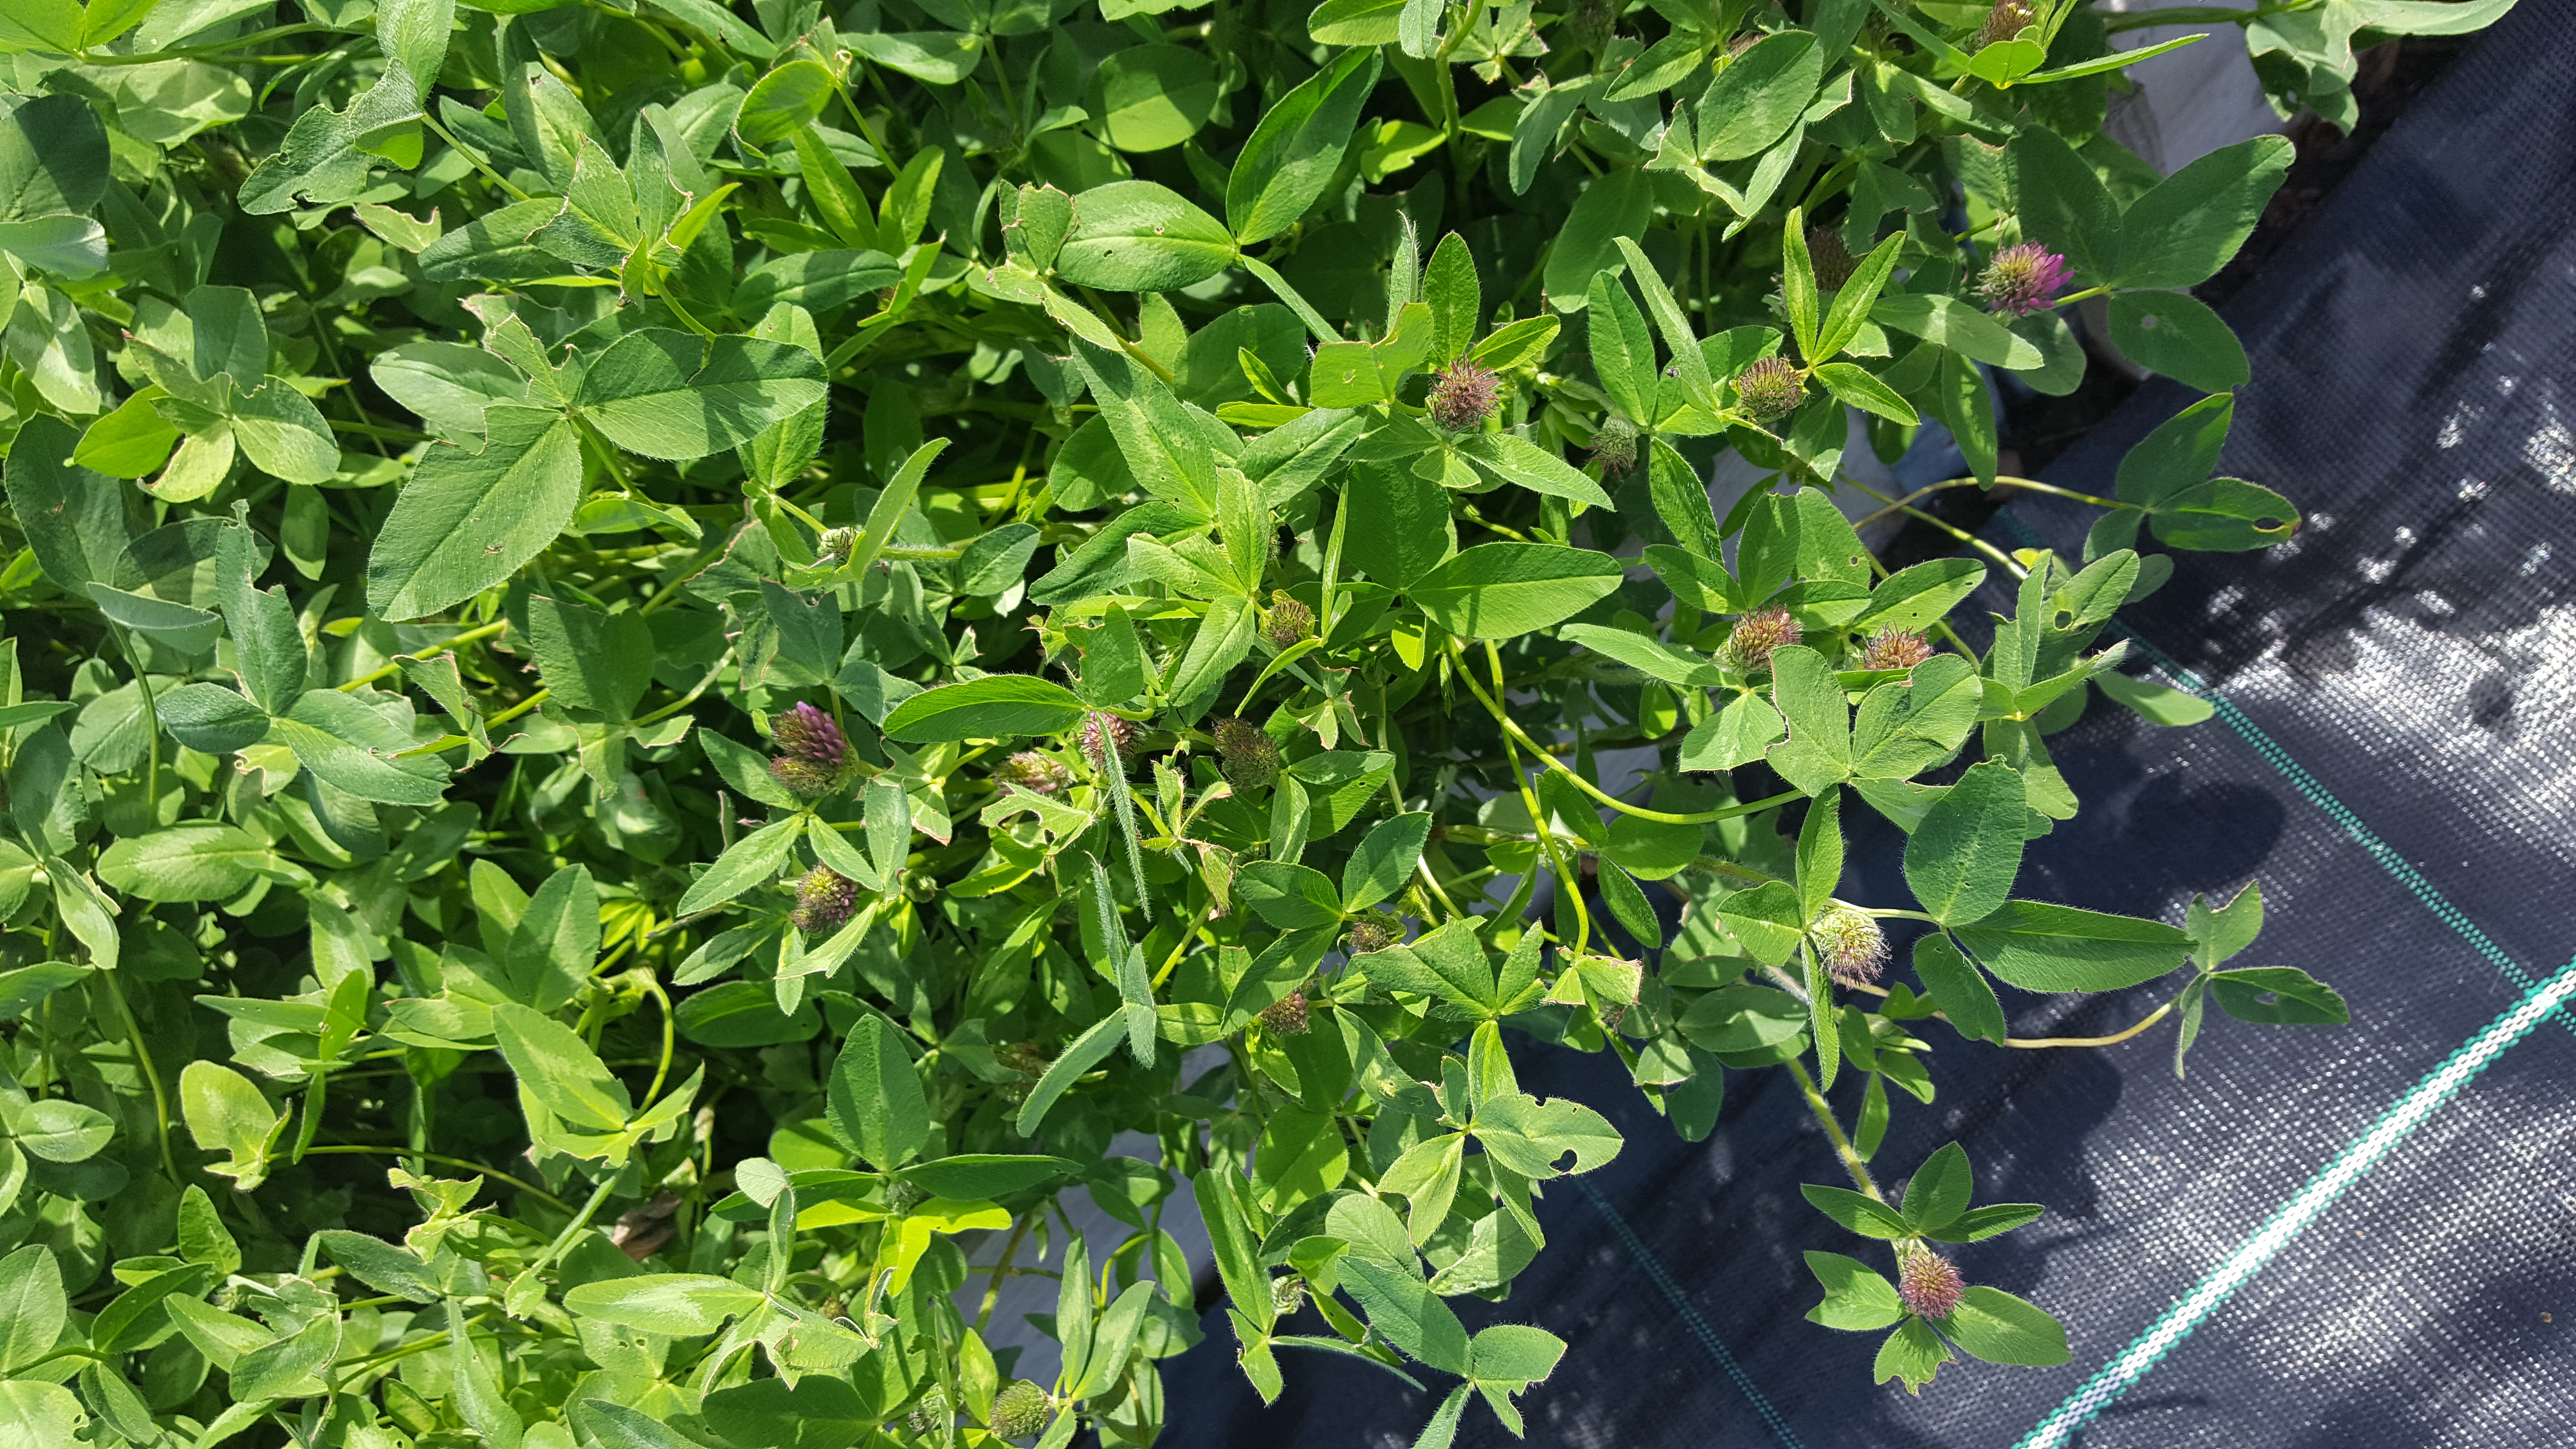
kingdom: Plantae
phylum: Tracheophyta
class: Magnoliopsida
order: Fabales
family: Fabaceae
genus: Trifolium
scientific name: Trifolium pratense
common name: Red clover
